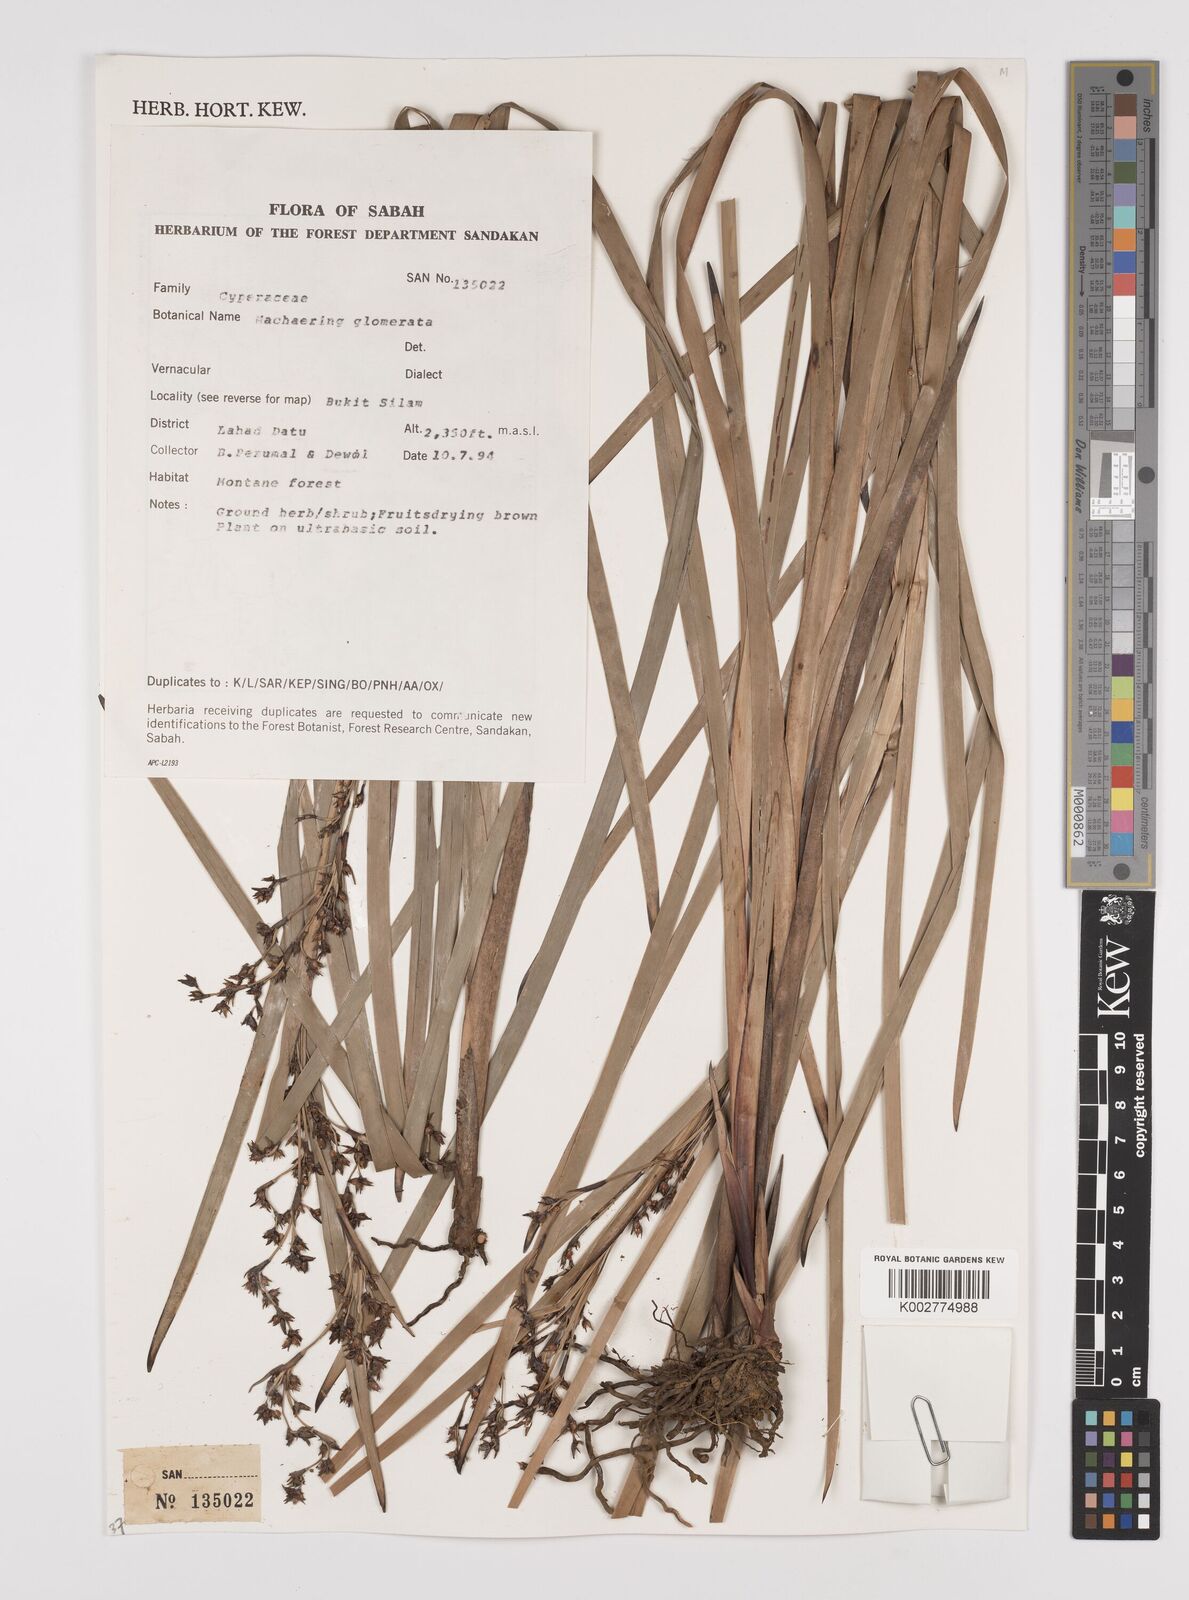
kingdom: Plantae
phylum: Tracheophyta
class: Liliopsida
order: Poales
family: Cyperaceae
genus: Machaerina
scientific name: Machaerina glomerata
